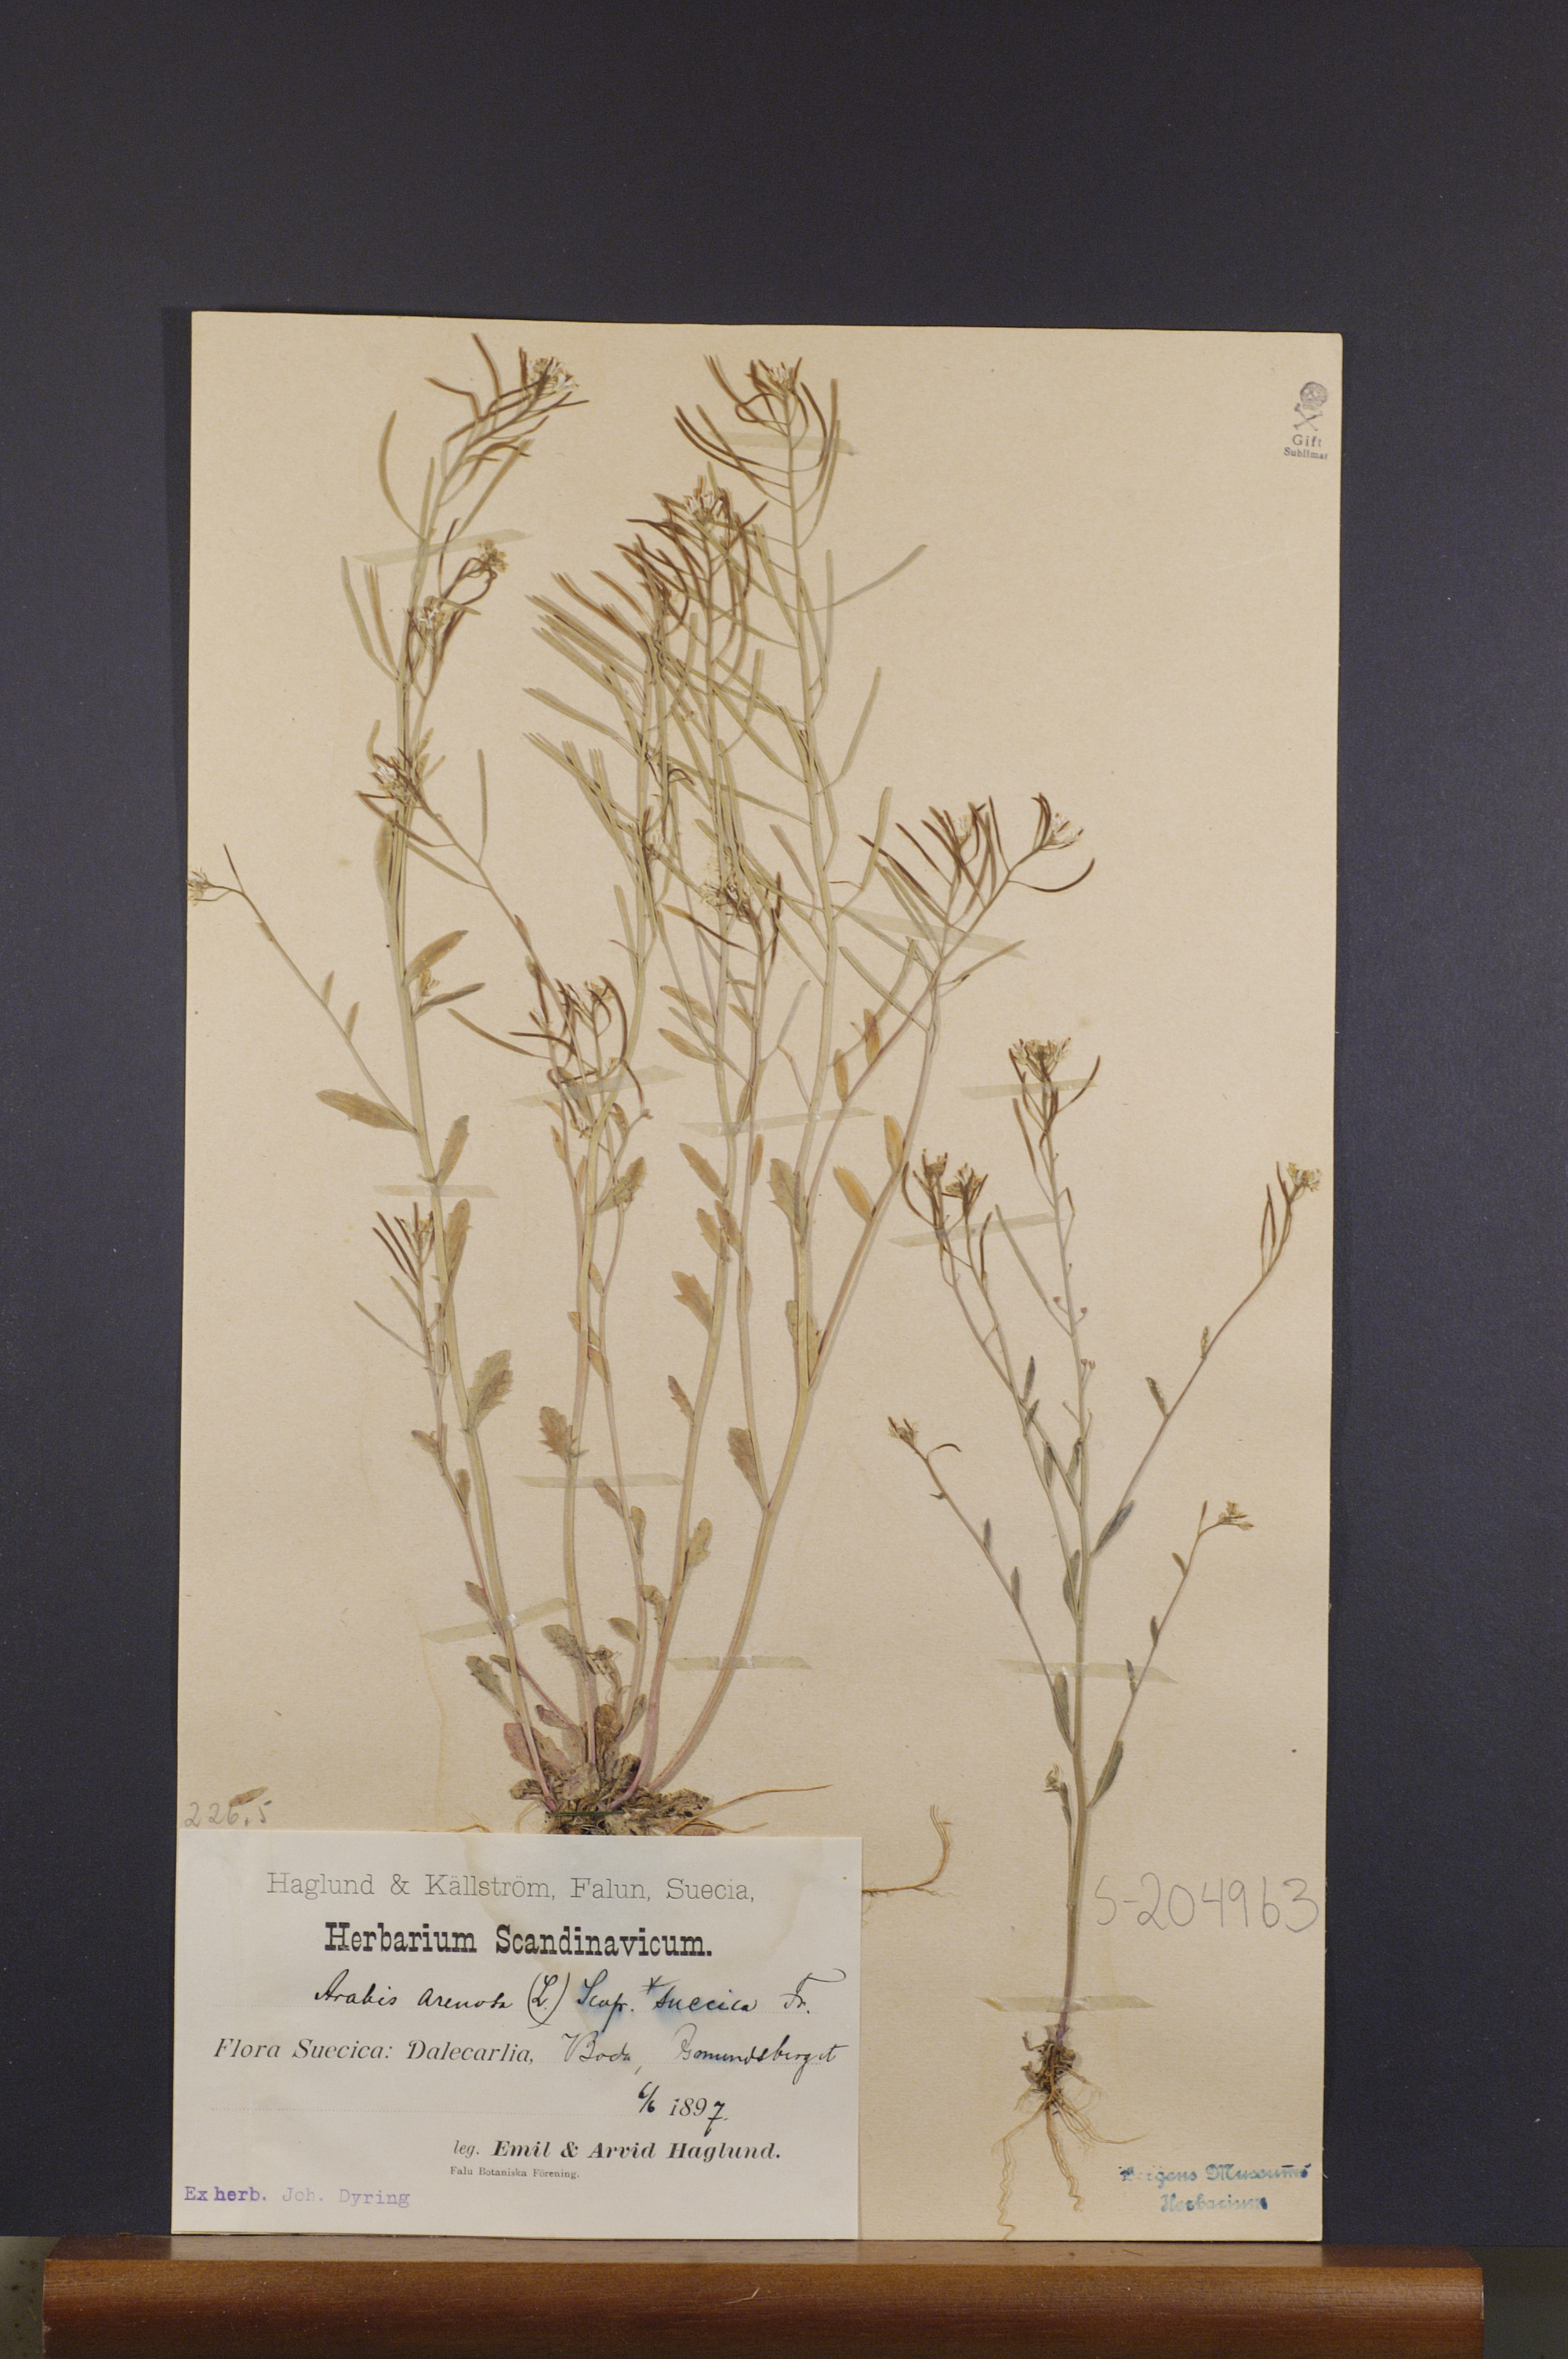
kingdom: Plantae
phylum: Tracheophyta
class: Magnoliopsida
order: Brassicales
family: Brassicaceae
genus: Arabidopsis
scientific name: Arabidopsis suecica
